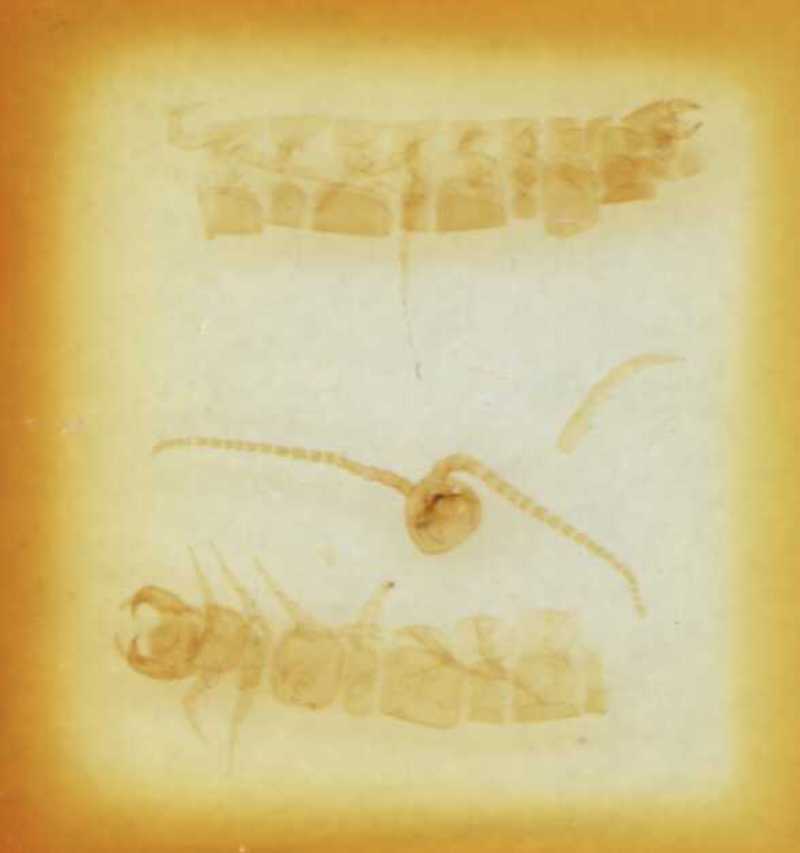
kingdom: Animalia
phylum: Arthropoda
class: Chilopoda
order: Lithobiomorpha
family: Lithobiidae
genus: Hessebius
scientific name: Hessebius barbipes
